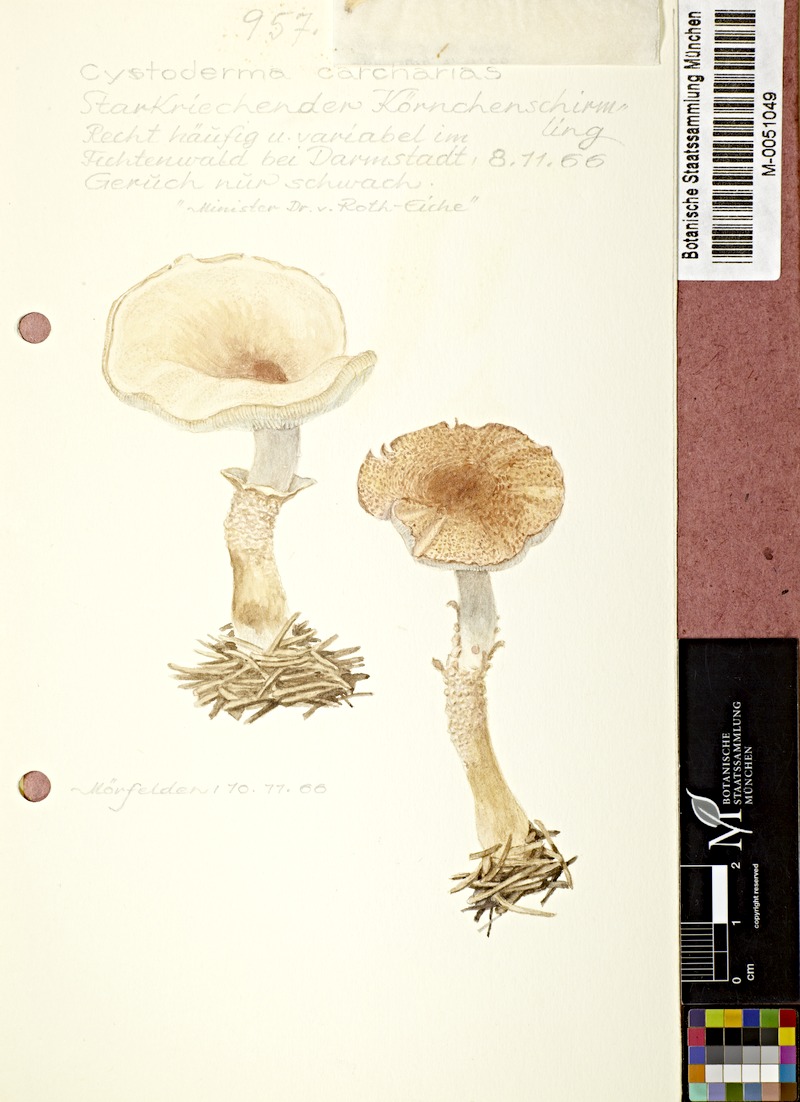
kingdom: Fungi
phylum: Basidiomycota
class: Agaricomycetes
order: Agaricales
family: Tricholomataceae
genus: Cystoderma
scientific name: Cystoderma carcharias
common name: Pearly powdercap
